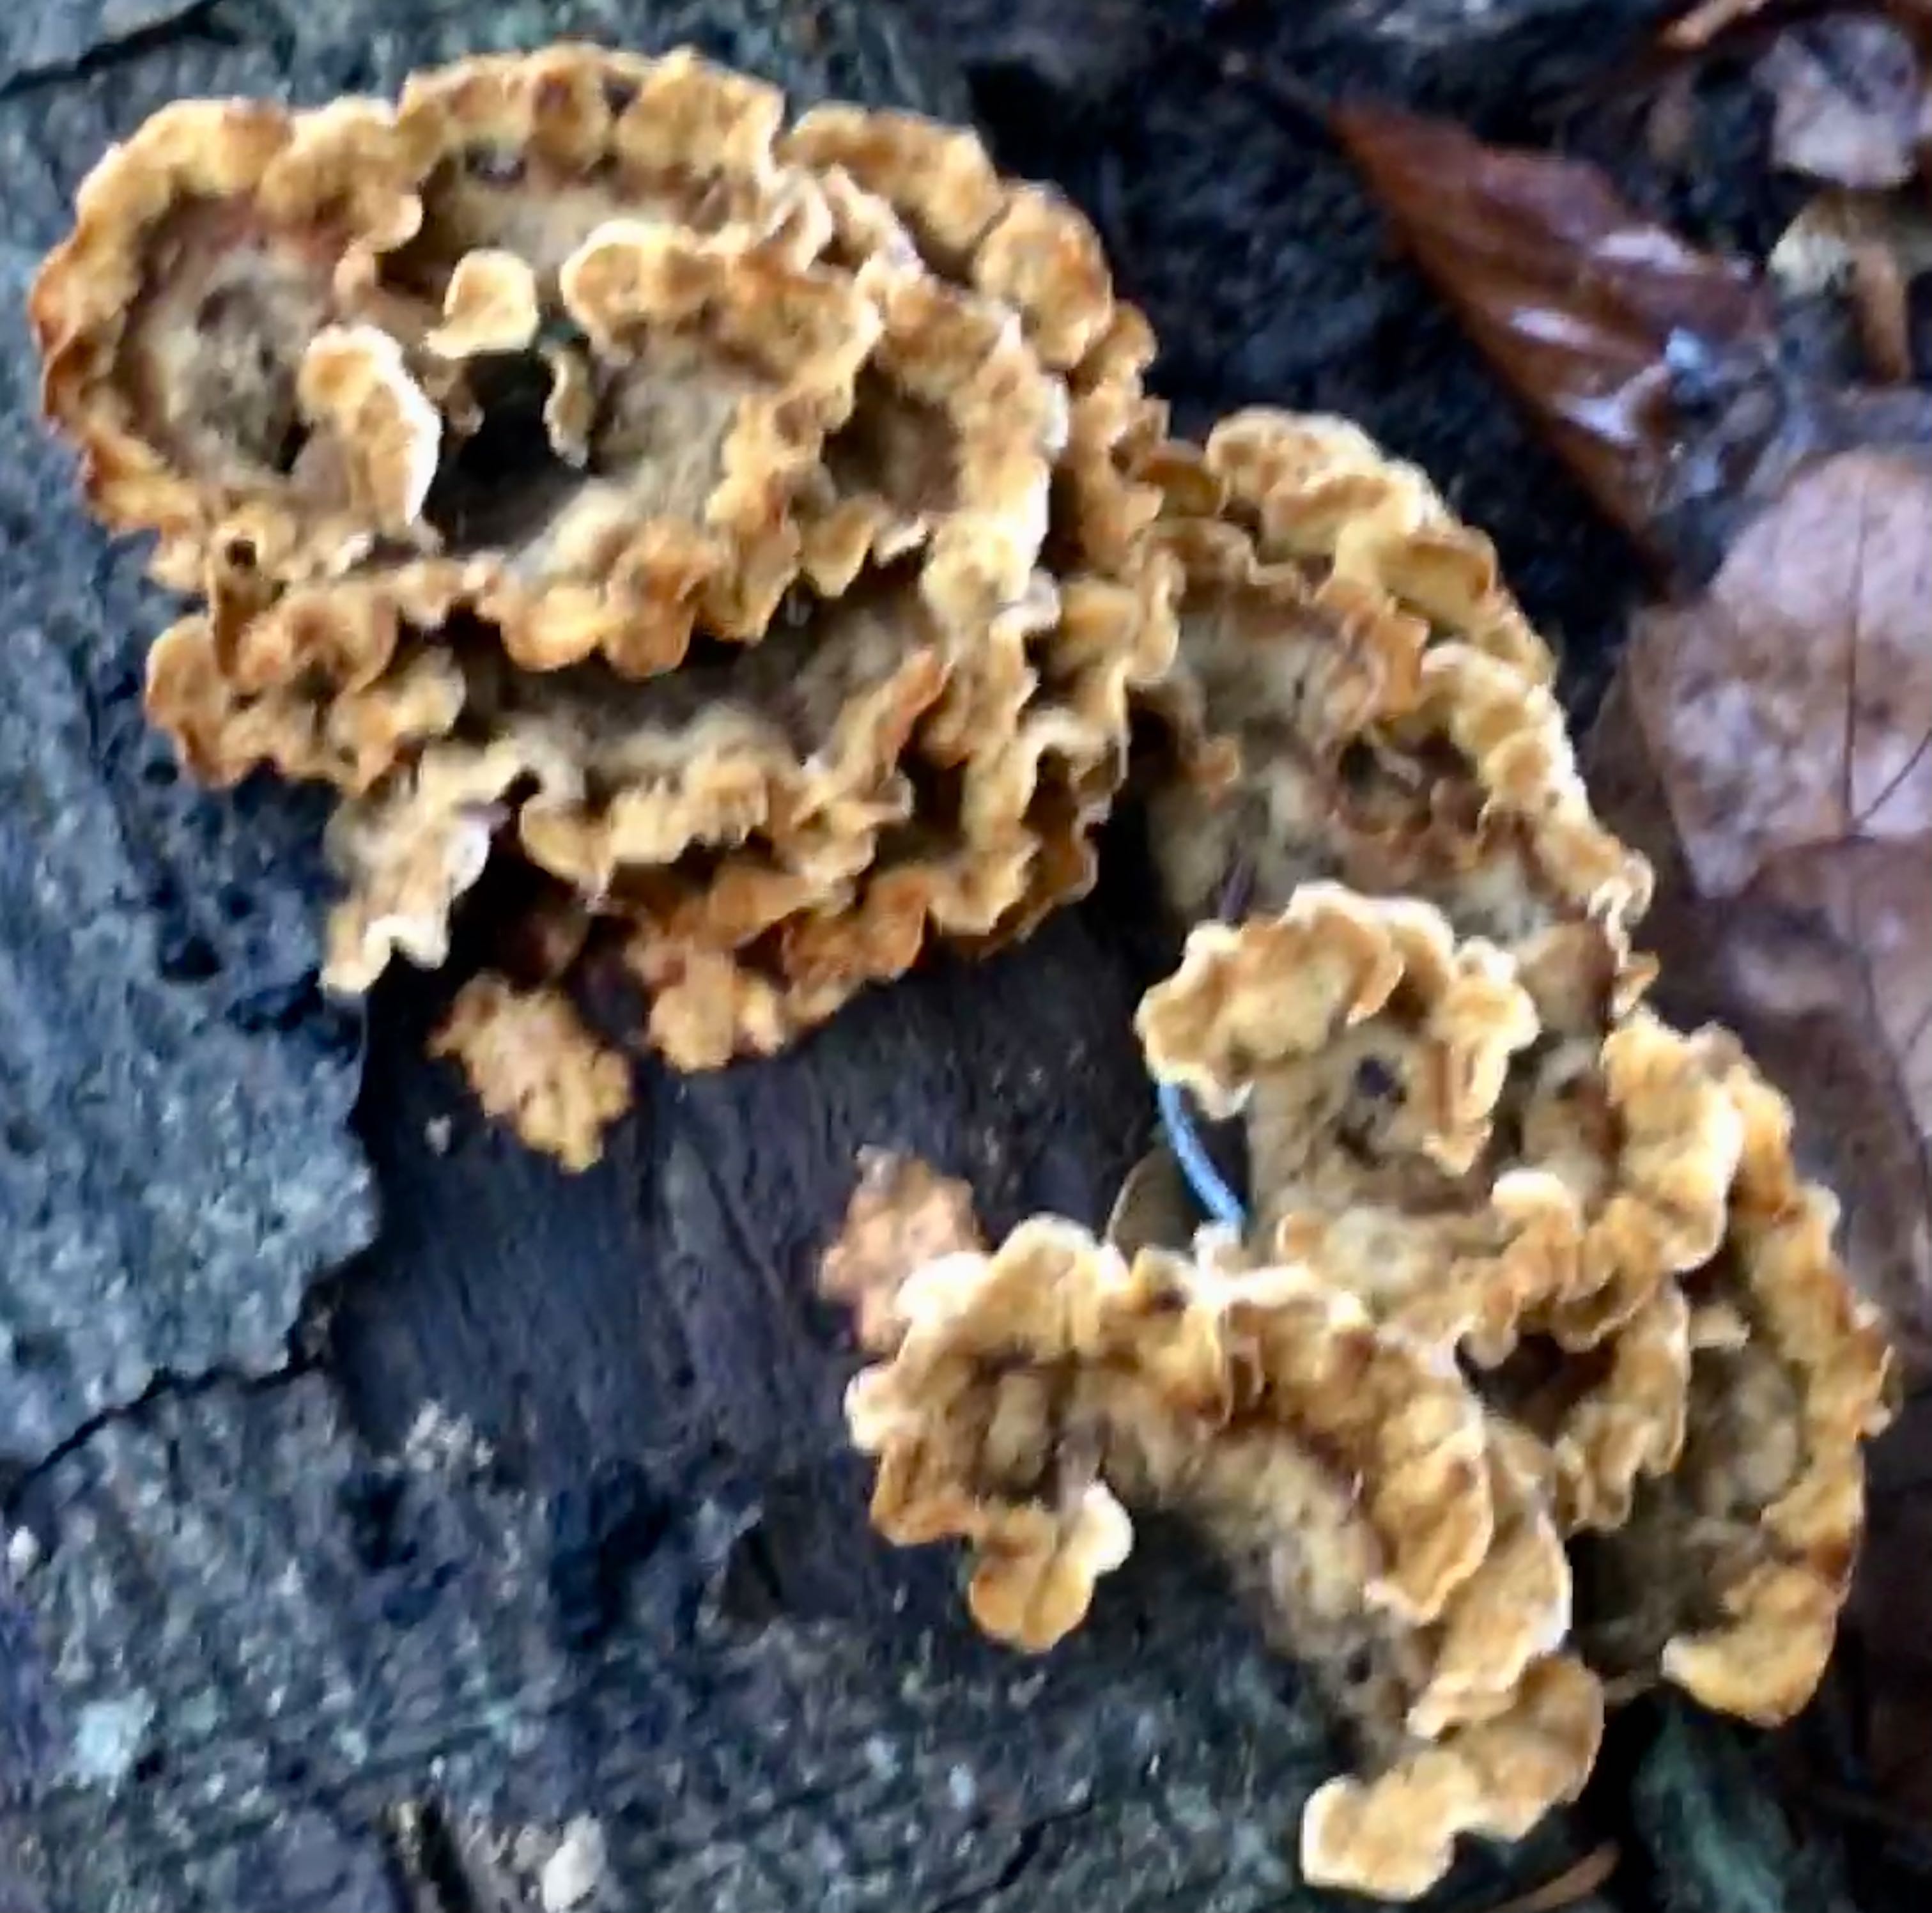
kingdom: Fungi
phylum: Basidiomycota
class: Agaricomycetes
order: Russulales
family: Stereaceae
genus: Stereum
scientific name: Stereum hirsutum
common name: håret lædersvamp
